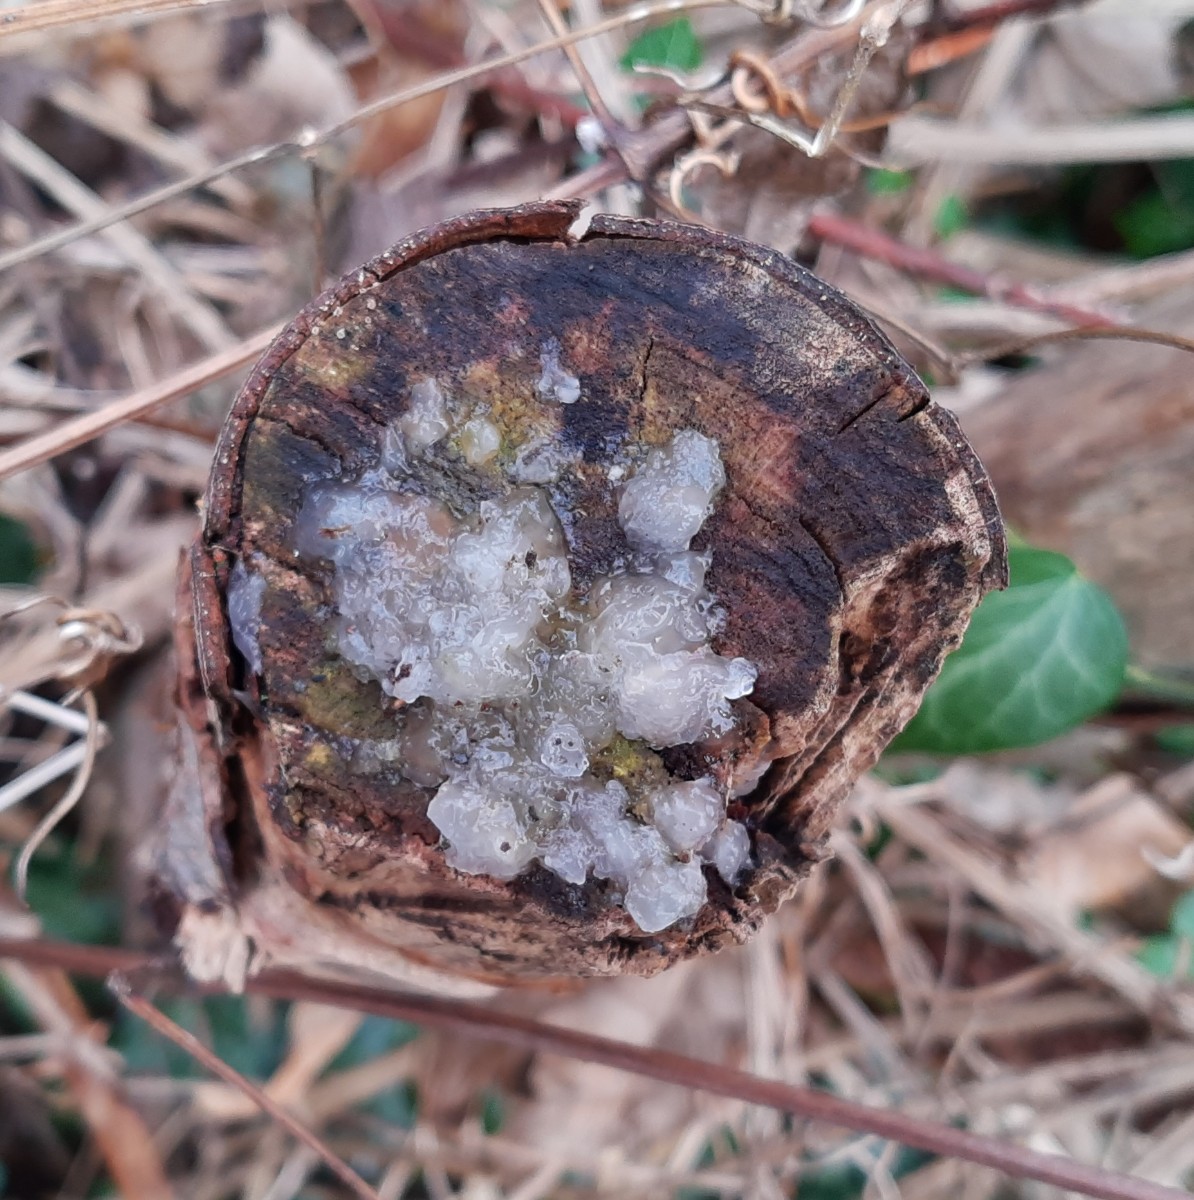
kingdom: Fungi
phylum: Basidiomycota
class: Agaricomycetes
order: Auriculariales
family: Auriculariaceae
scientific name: Auriculariaceae
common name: judasørefamilien
